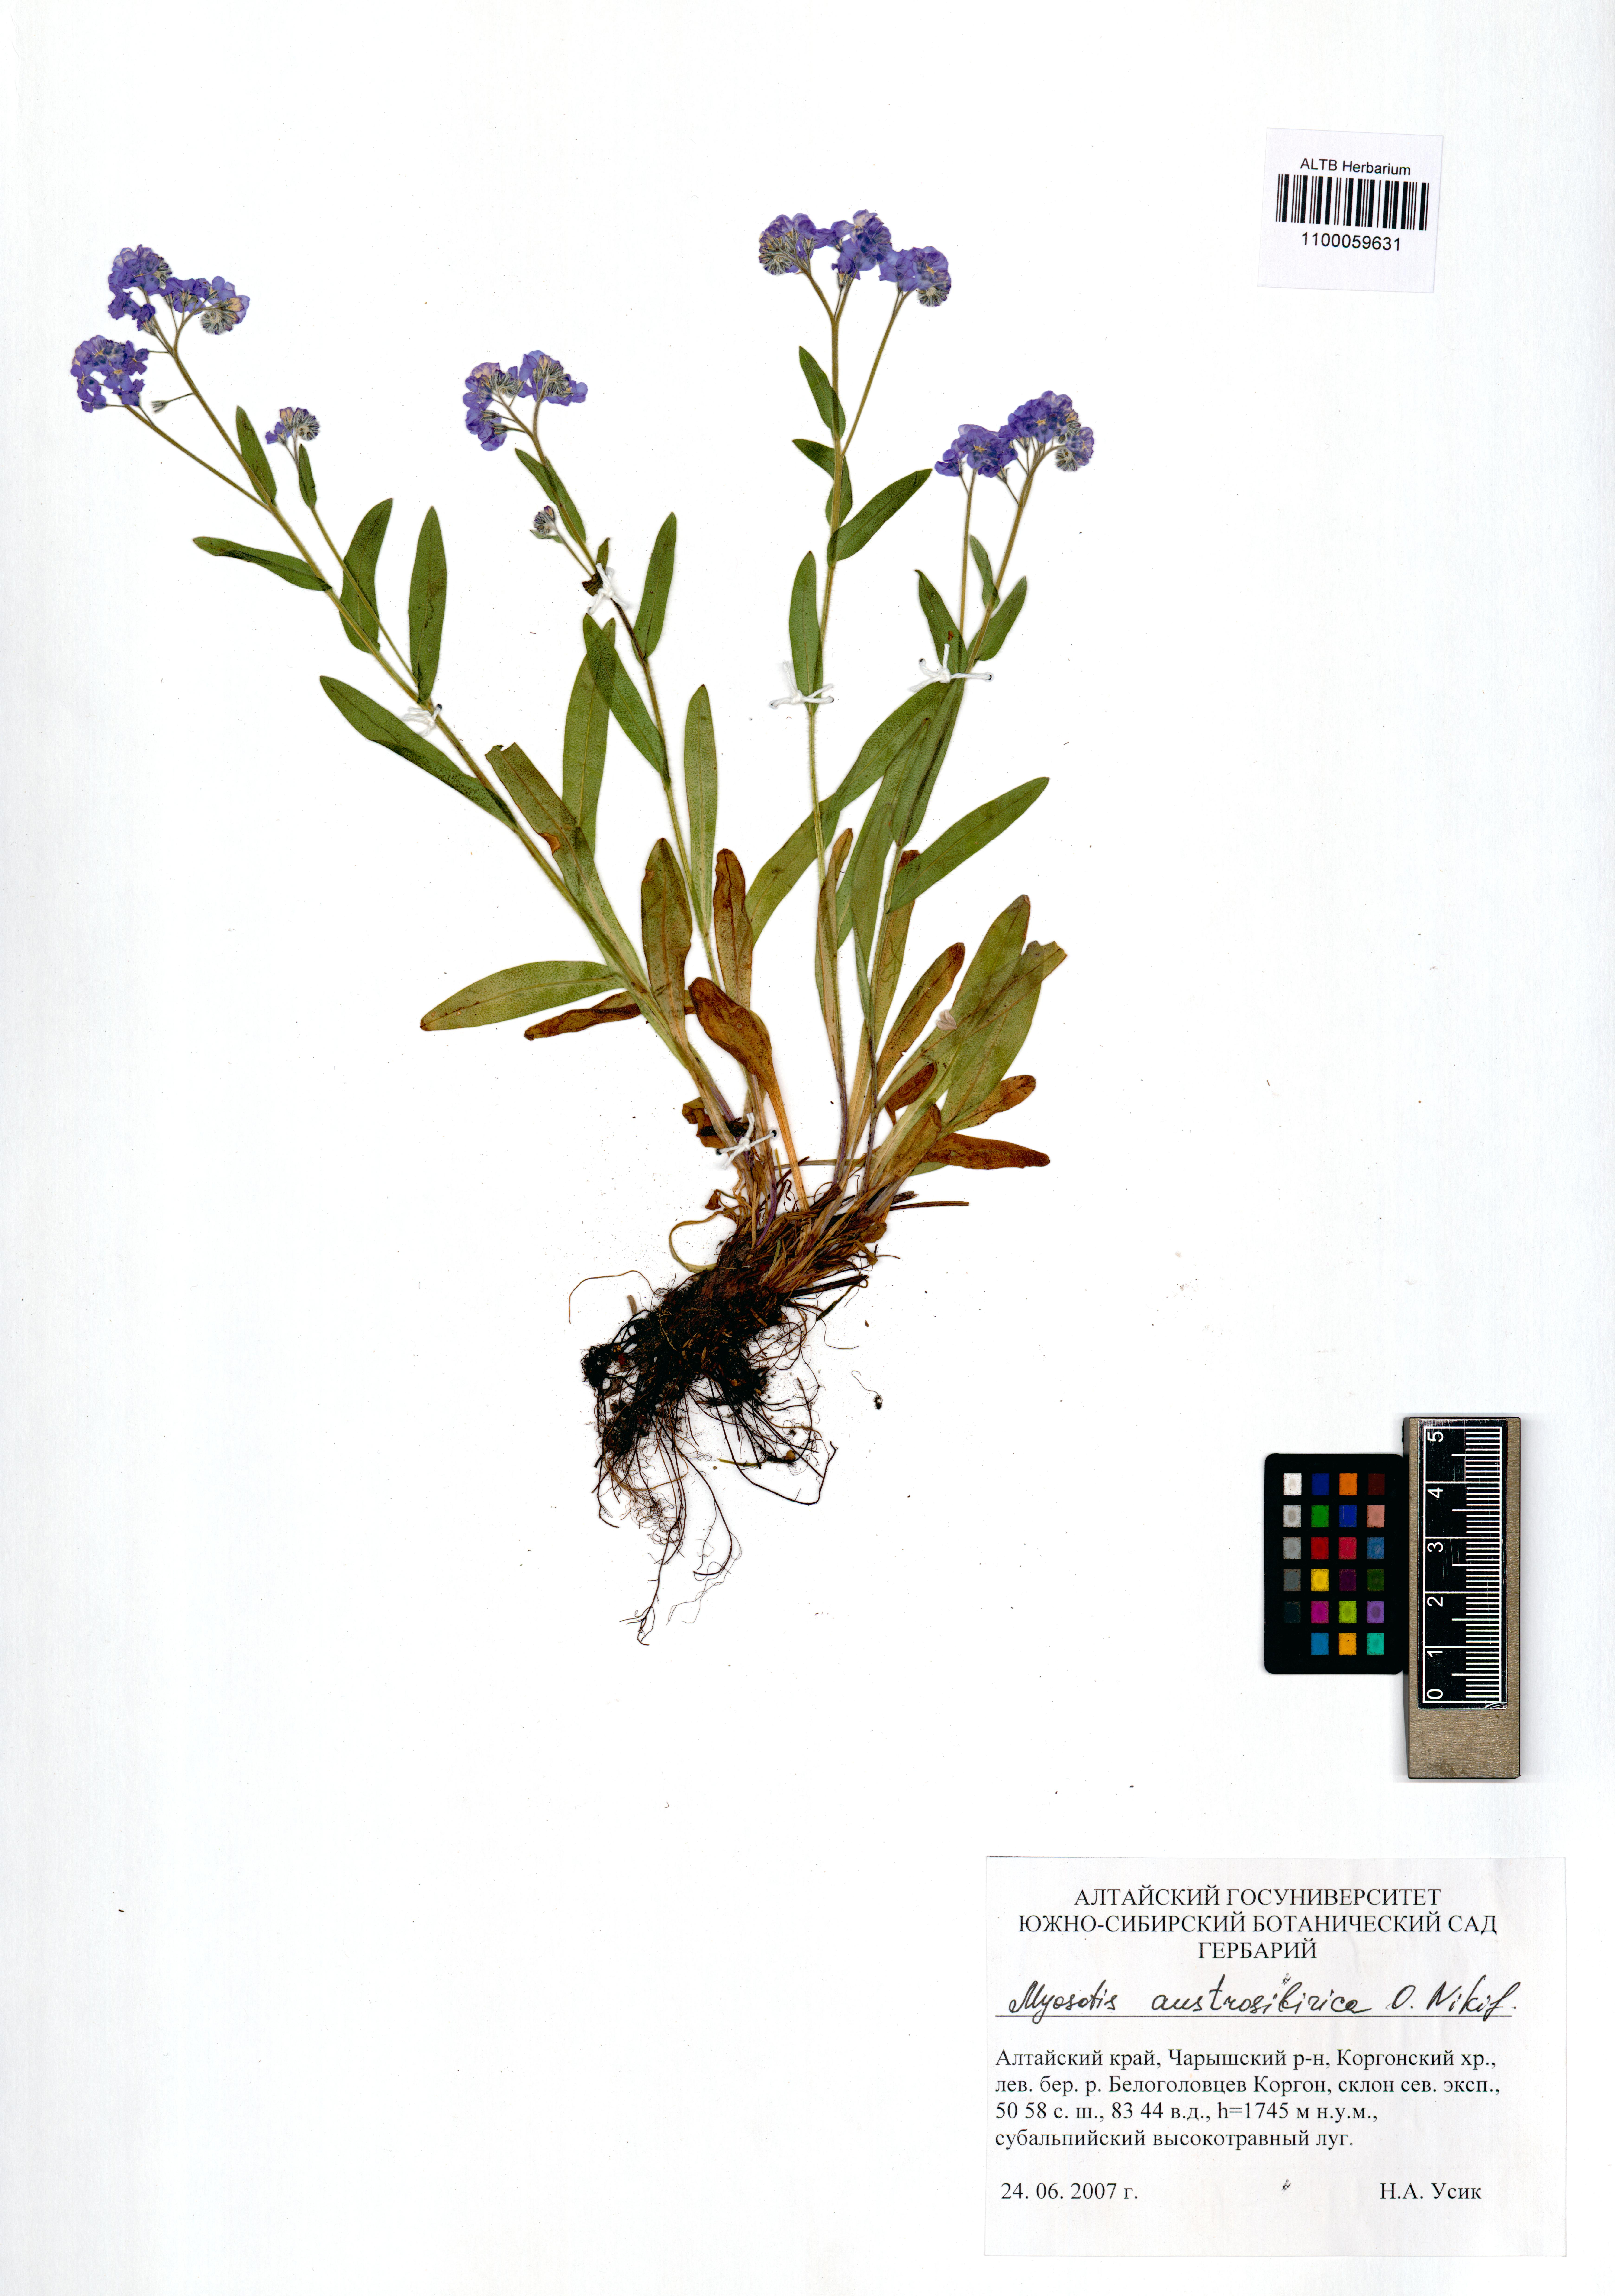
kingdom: Plantae
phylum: Tracheophyta
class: Magnoliopsida
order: Boraginales
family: Boraginaceae
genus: Myosotis
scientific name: Myosotis austrosibirica
